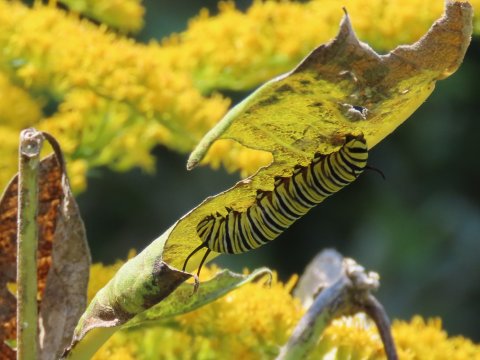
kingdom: Animalia
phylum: Arthropoda
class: Insecta
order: Lepidoptera
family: Nymphalidae
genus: Danaus
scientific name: Danaus plexippus
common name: Monarch
